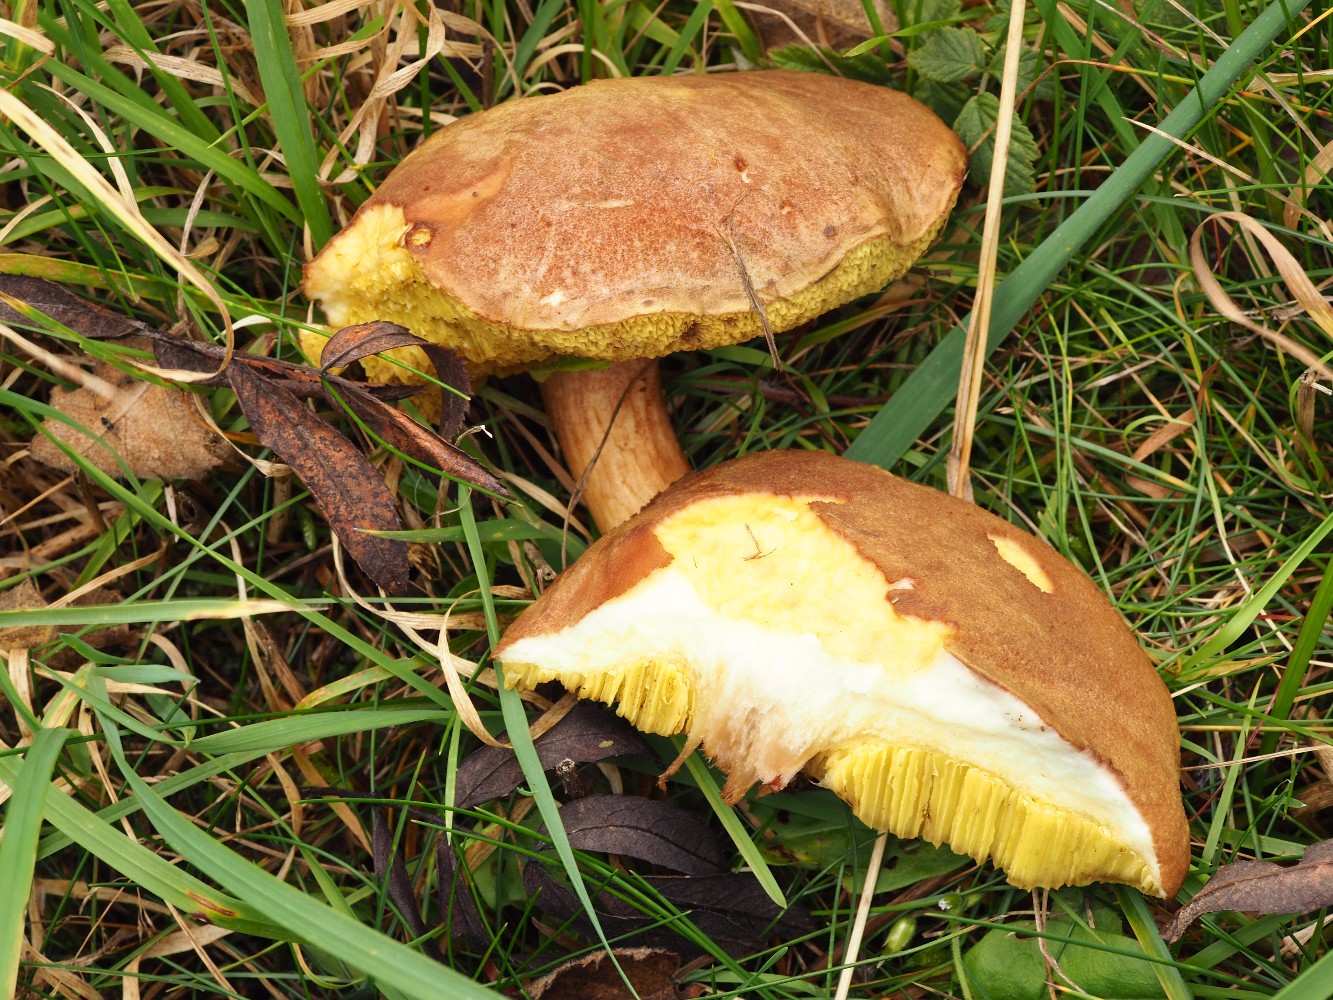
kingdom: Fungi
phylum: Basidiomycota
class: Agaricomycetes
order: Boletales
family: Boletaceae
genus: Xerocomus
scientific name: Xerocomus
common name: filtrørhat
